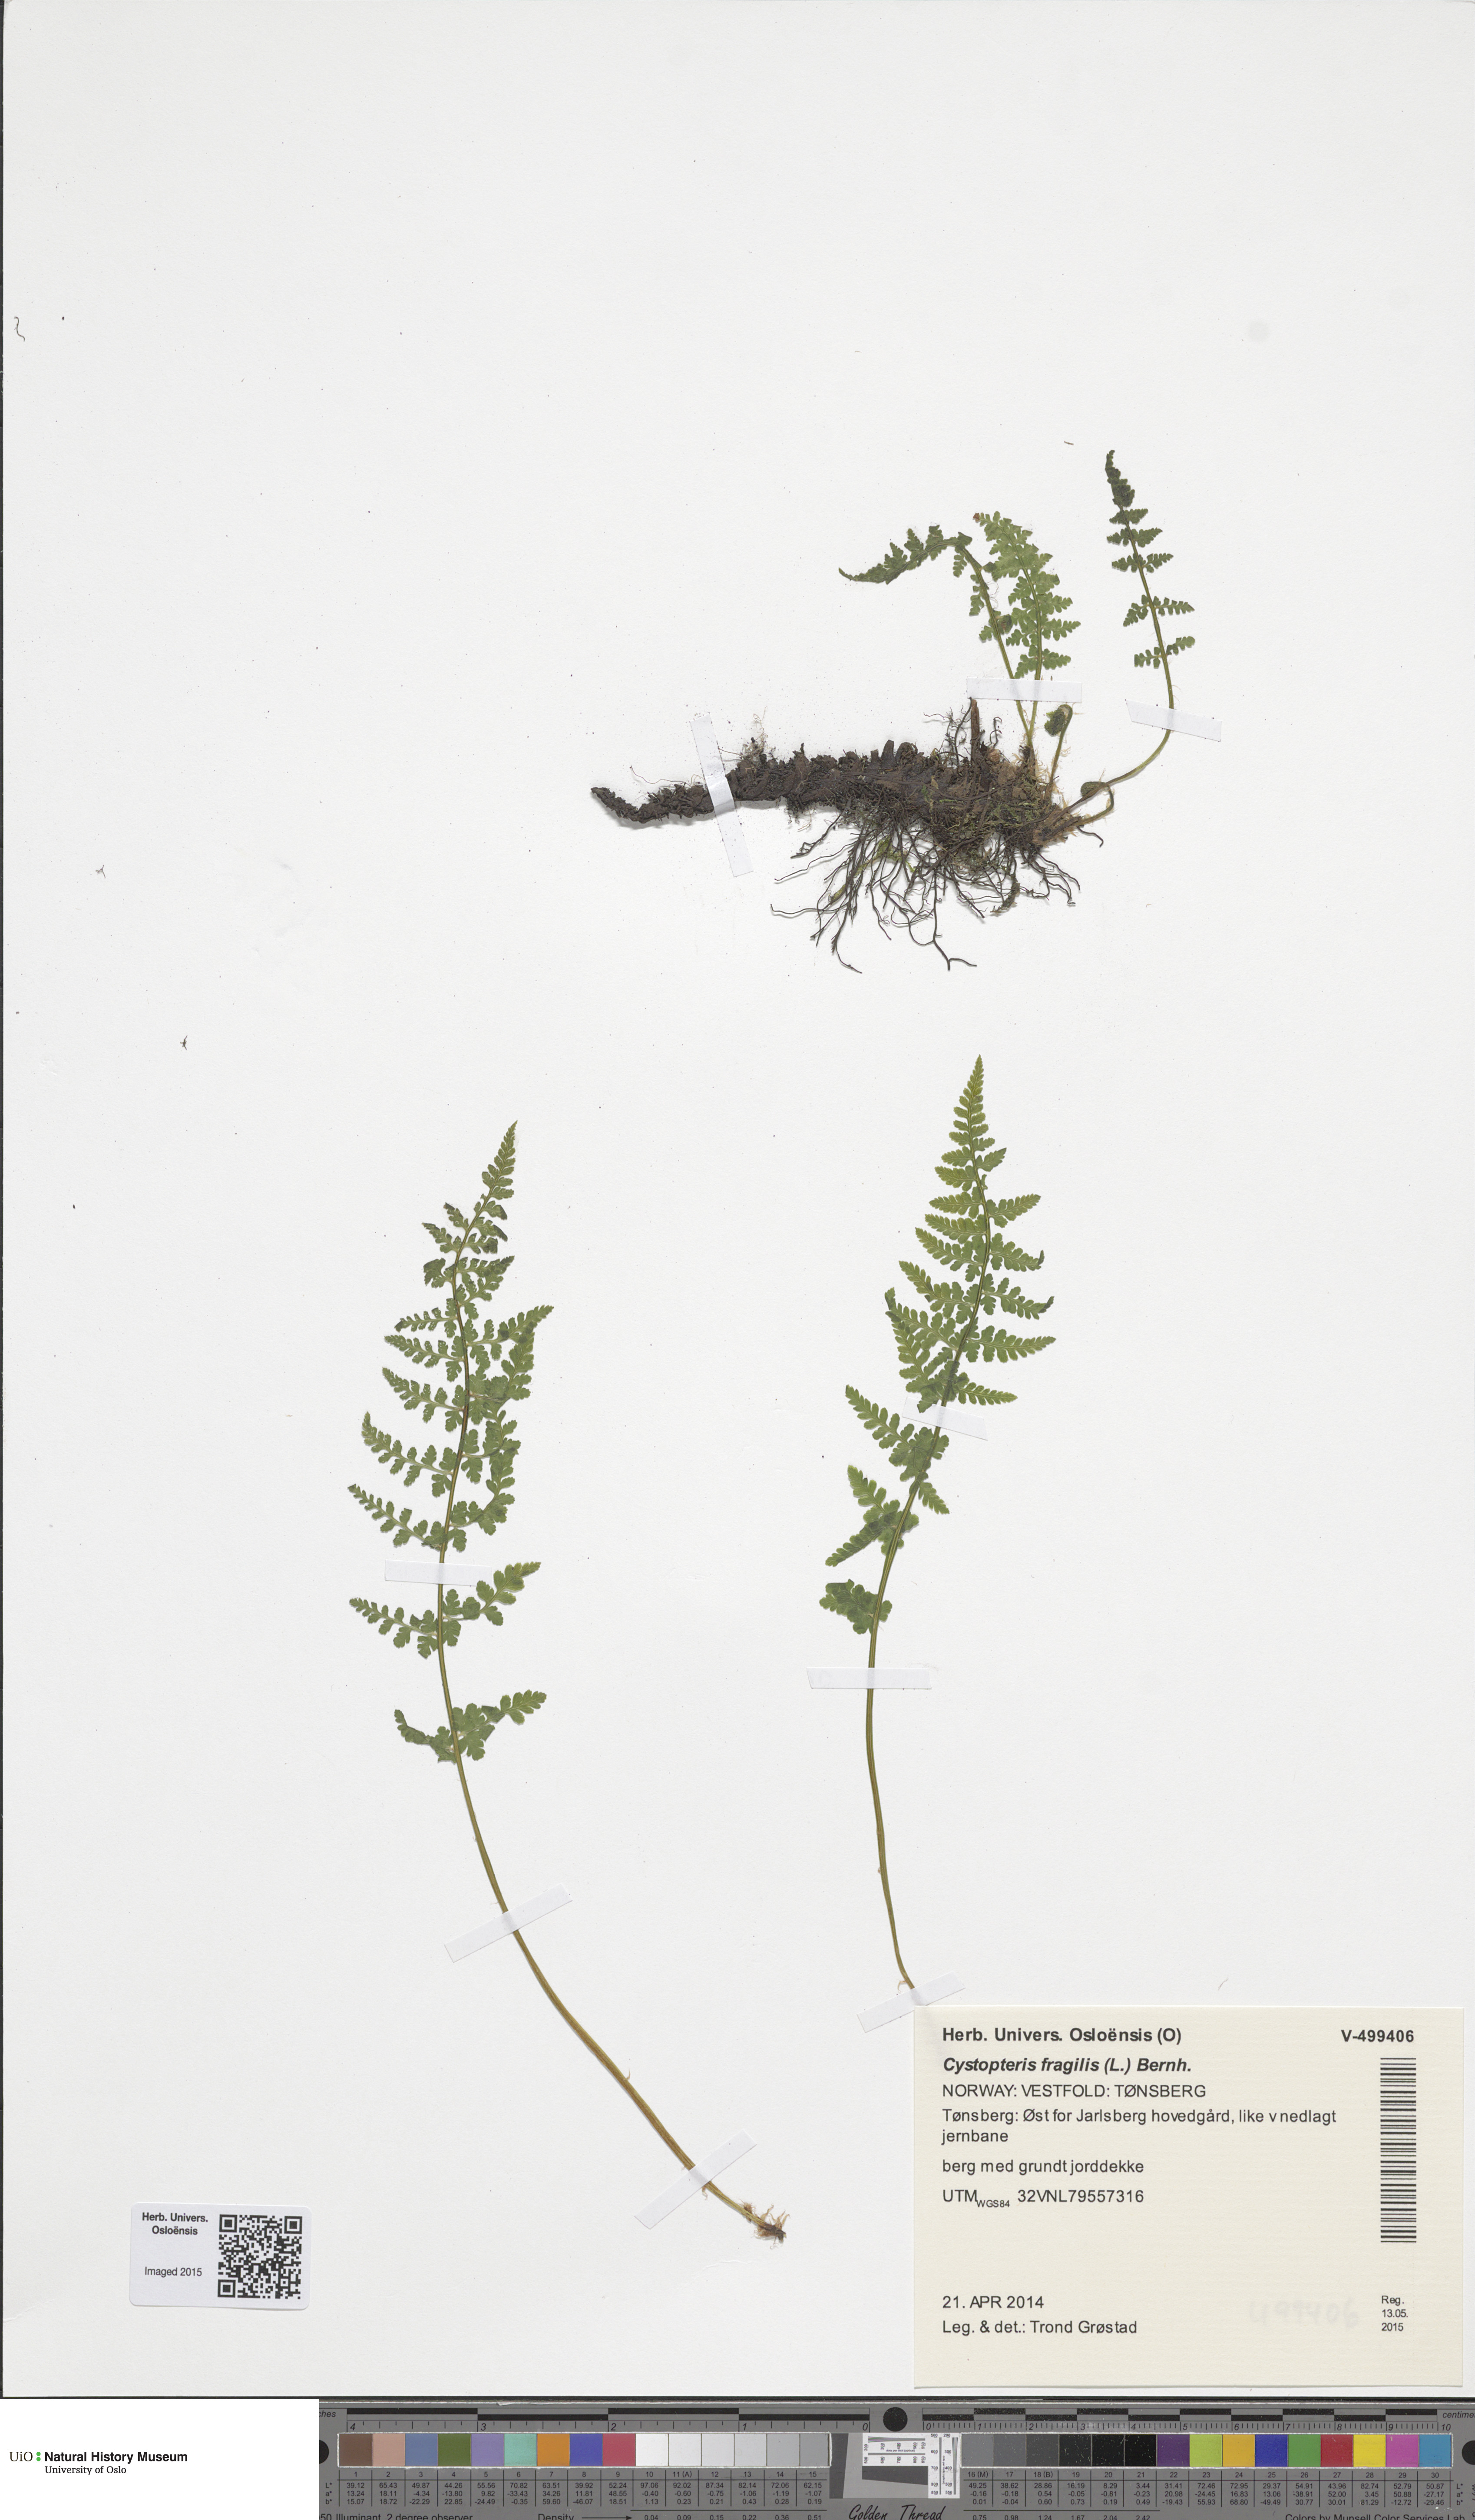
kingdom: Plantae
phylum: Tracheophyta
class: Polypodiopsida
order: Polypodiales
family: Cystopteridaceae
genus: Cystopteris
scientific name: Cystopteris fragilis
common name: Brittle bladder fern
